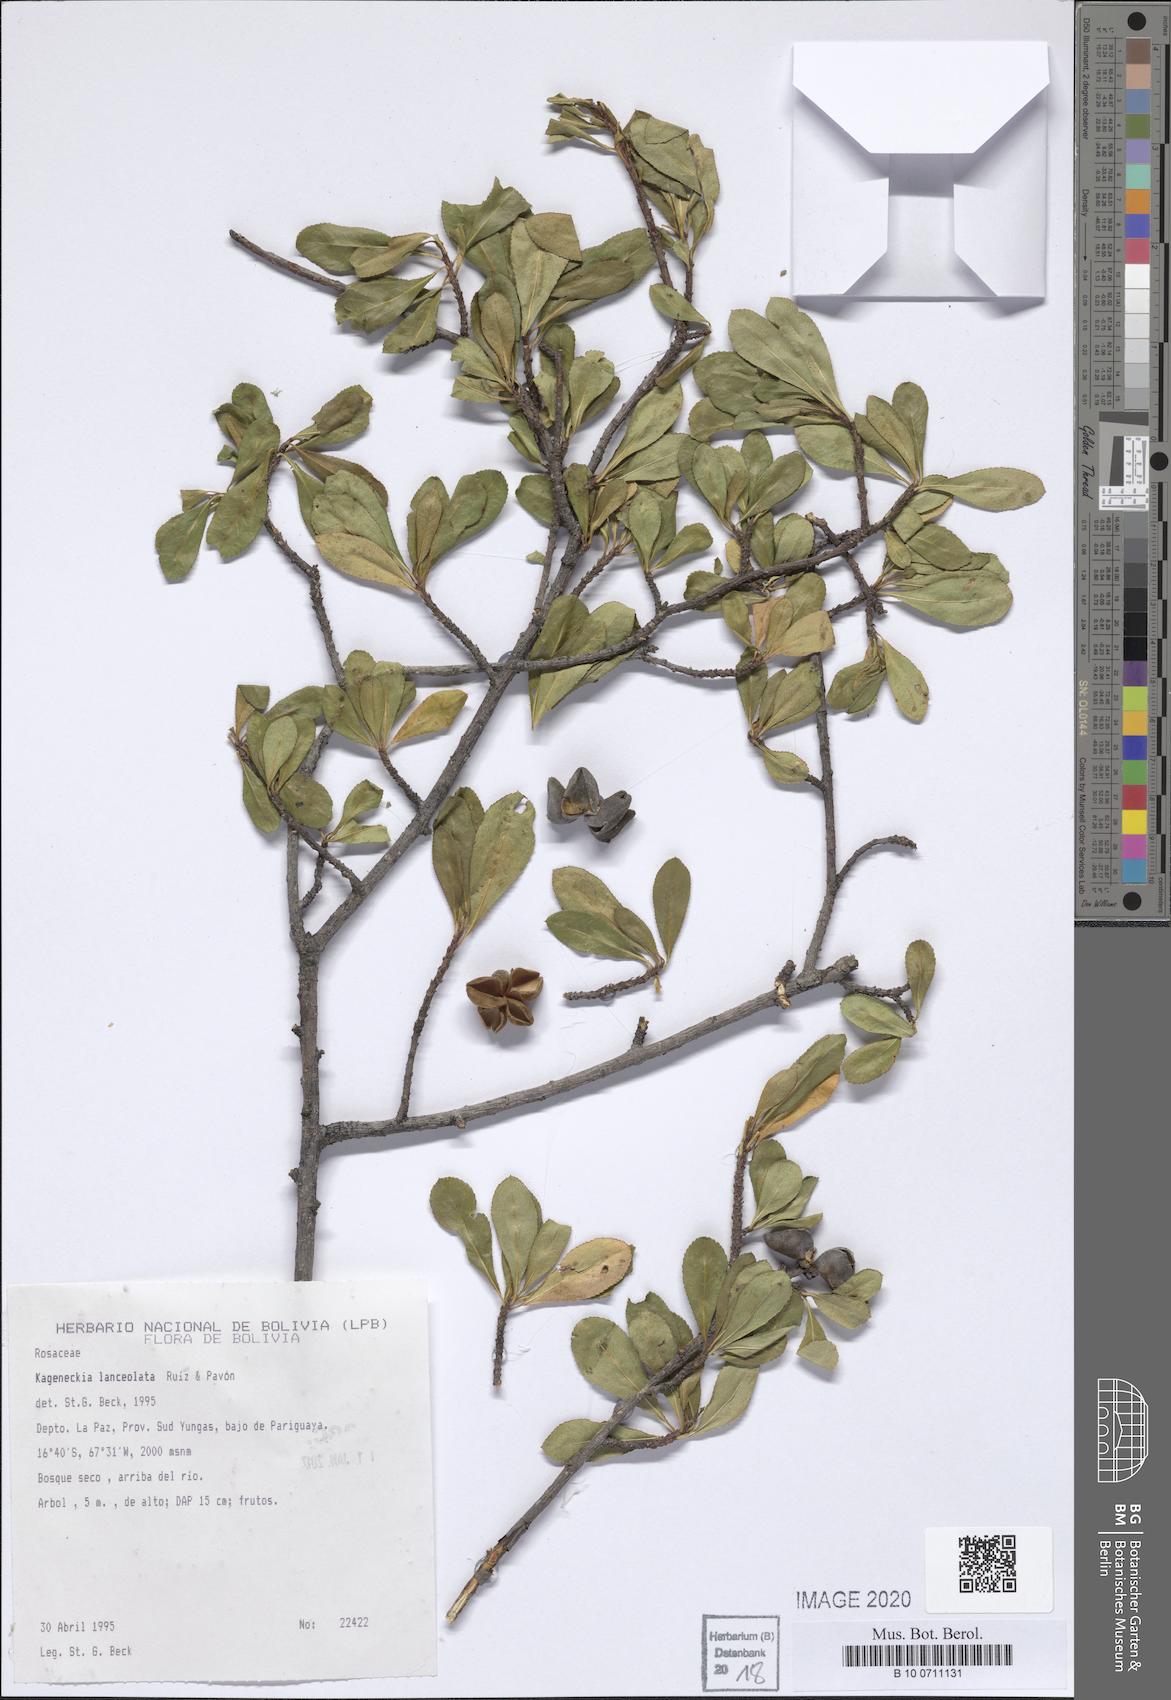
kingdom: Plantae
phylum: Tracheophyta
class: Magnoliopsida
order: Rosales
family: Rosaceae
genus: Kageneckia
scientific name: Kageneckia lanceolata
